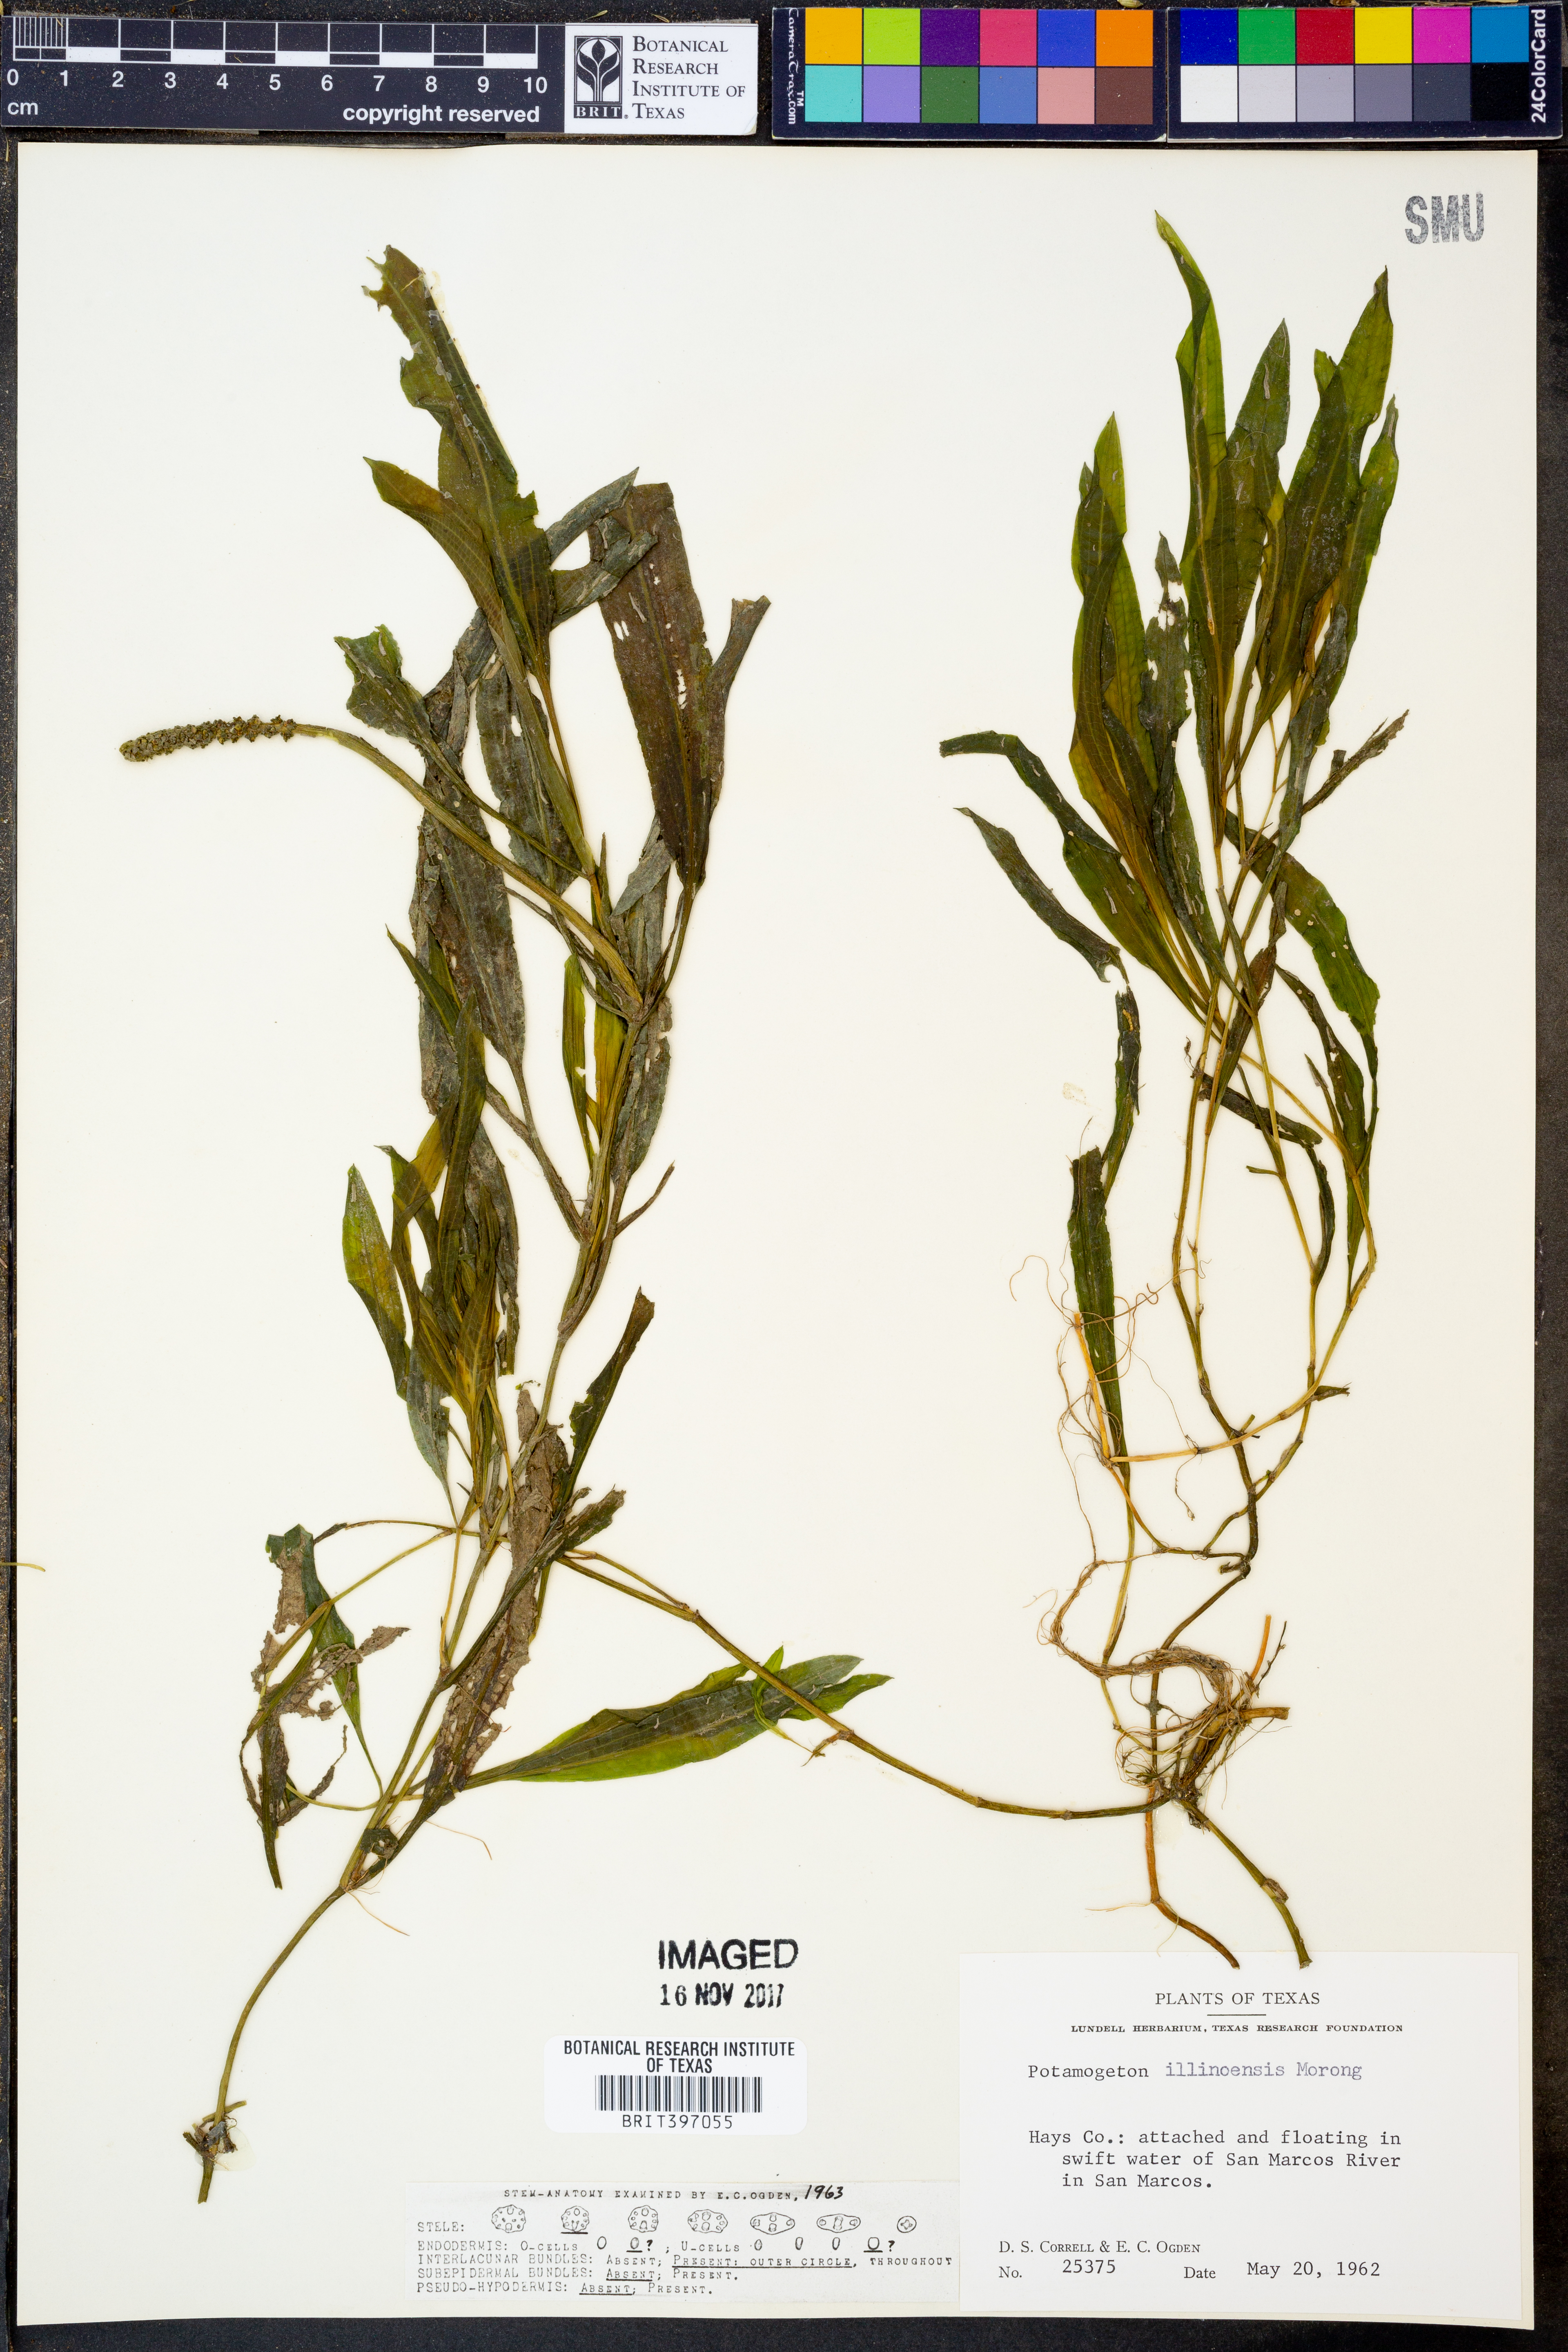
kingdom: Plantae
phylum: Tracheophyta
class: Liliopsida
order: Alismatales
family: Potamogetonaceae
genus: Potamogeton
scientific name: Potamogeton illinoensis
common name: Illinois pondweed
